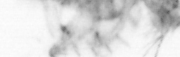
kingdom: Animalia
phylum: Annelida
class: Polychaeta
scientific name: Polychaeta
